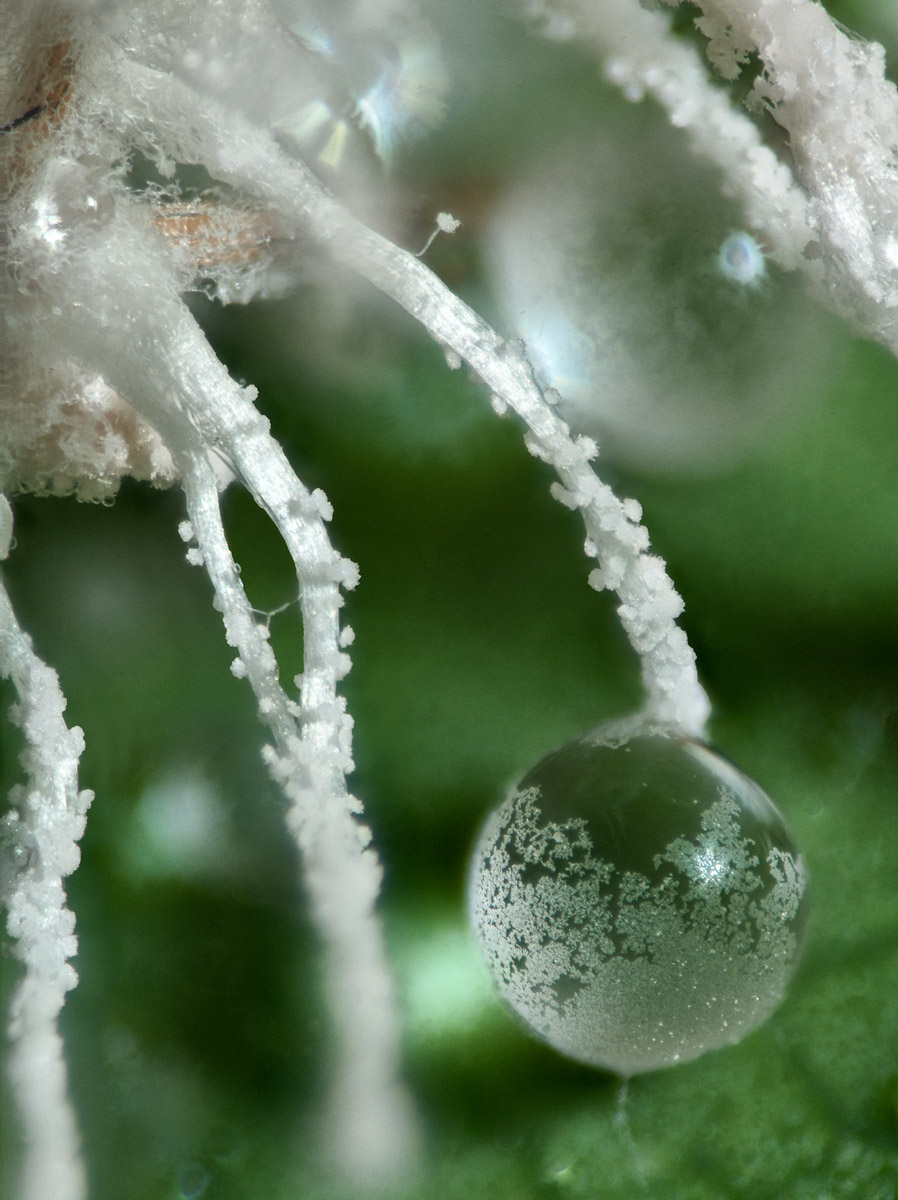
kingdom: Fungi
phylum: Ascomycota
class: Sordariomycetes
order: Hypocreales
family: Cordycipitaceae
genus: Gibellula
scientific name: Gibellula pulchra
